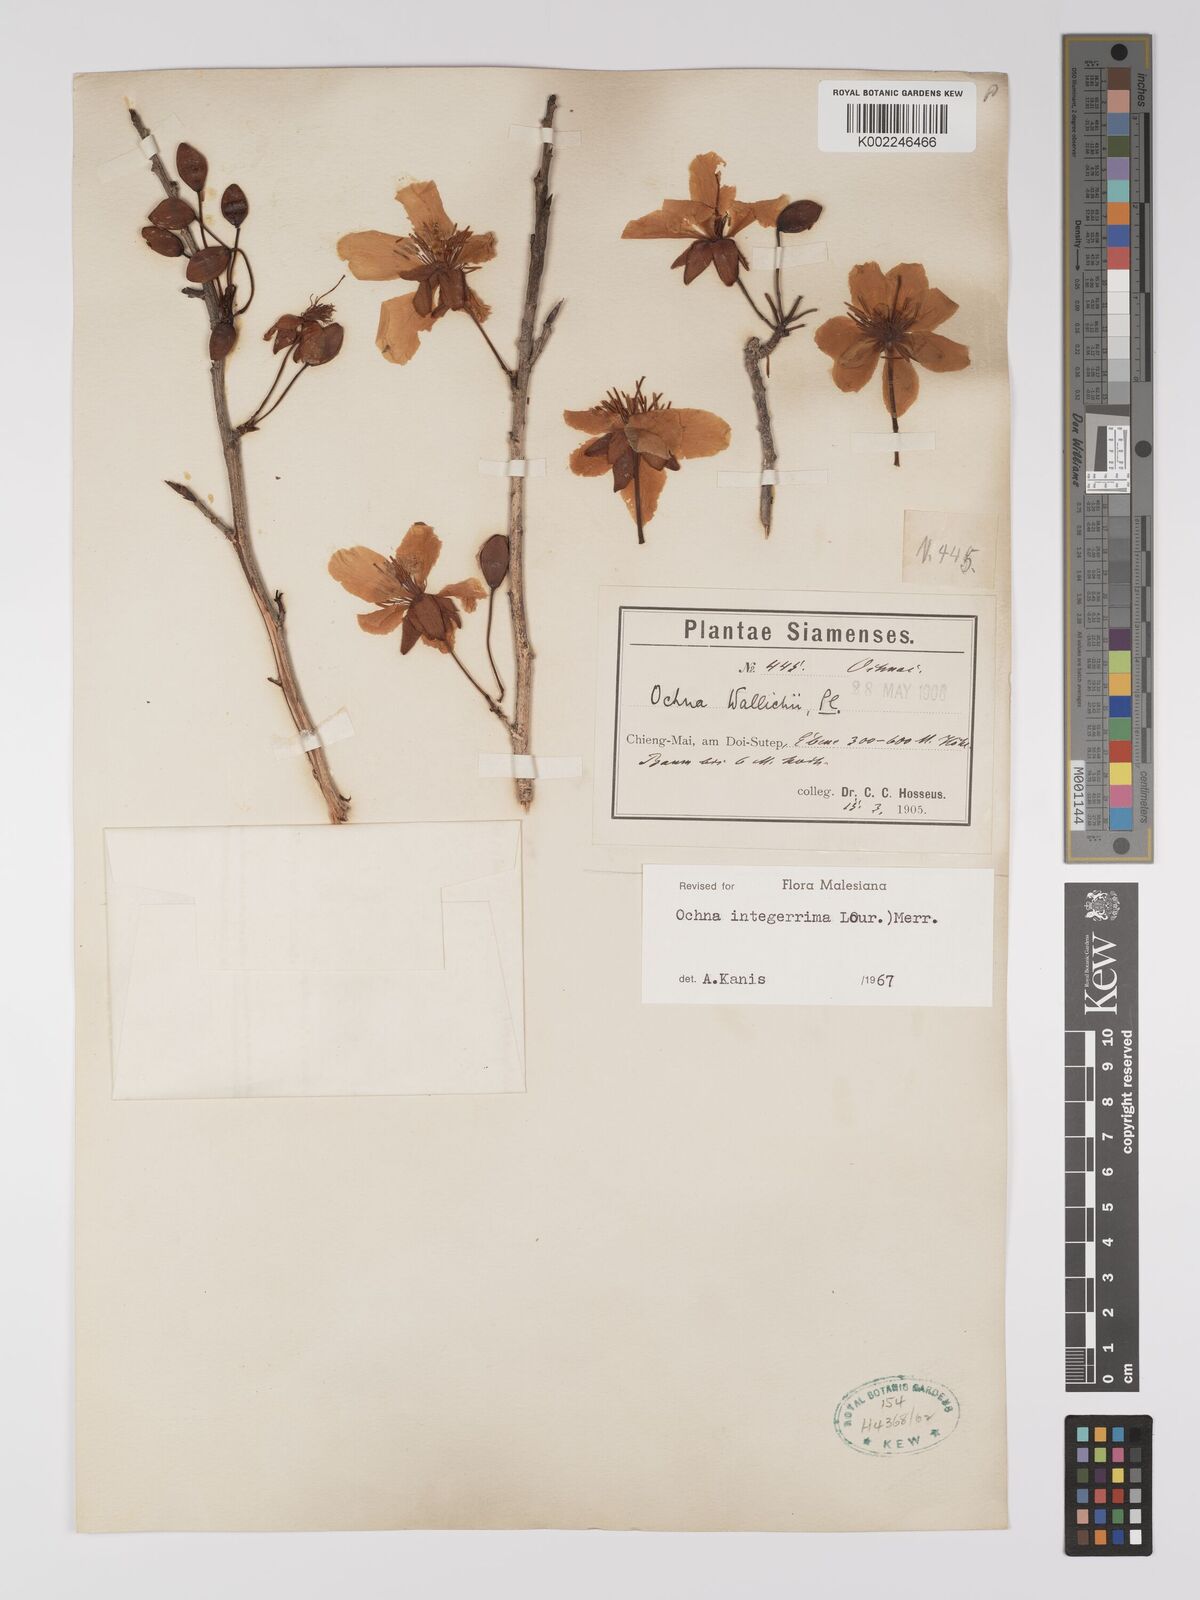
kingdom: Plantae
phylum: Tracheophyta
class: Magnoliopsida
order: Malpighiales
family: Ochnaceae
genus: Ochna
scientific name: Ochna integerrima
